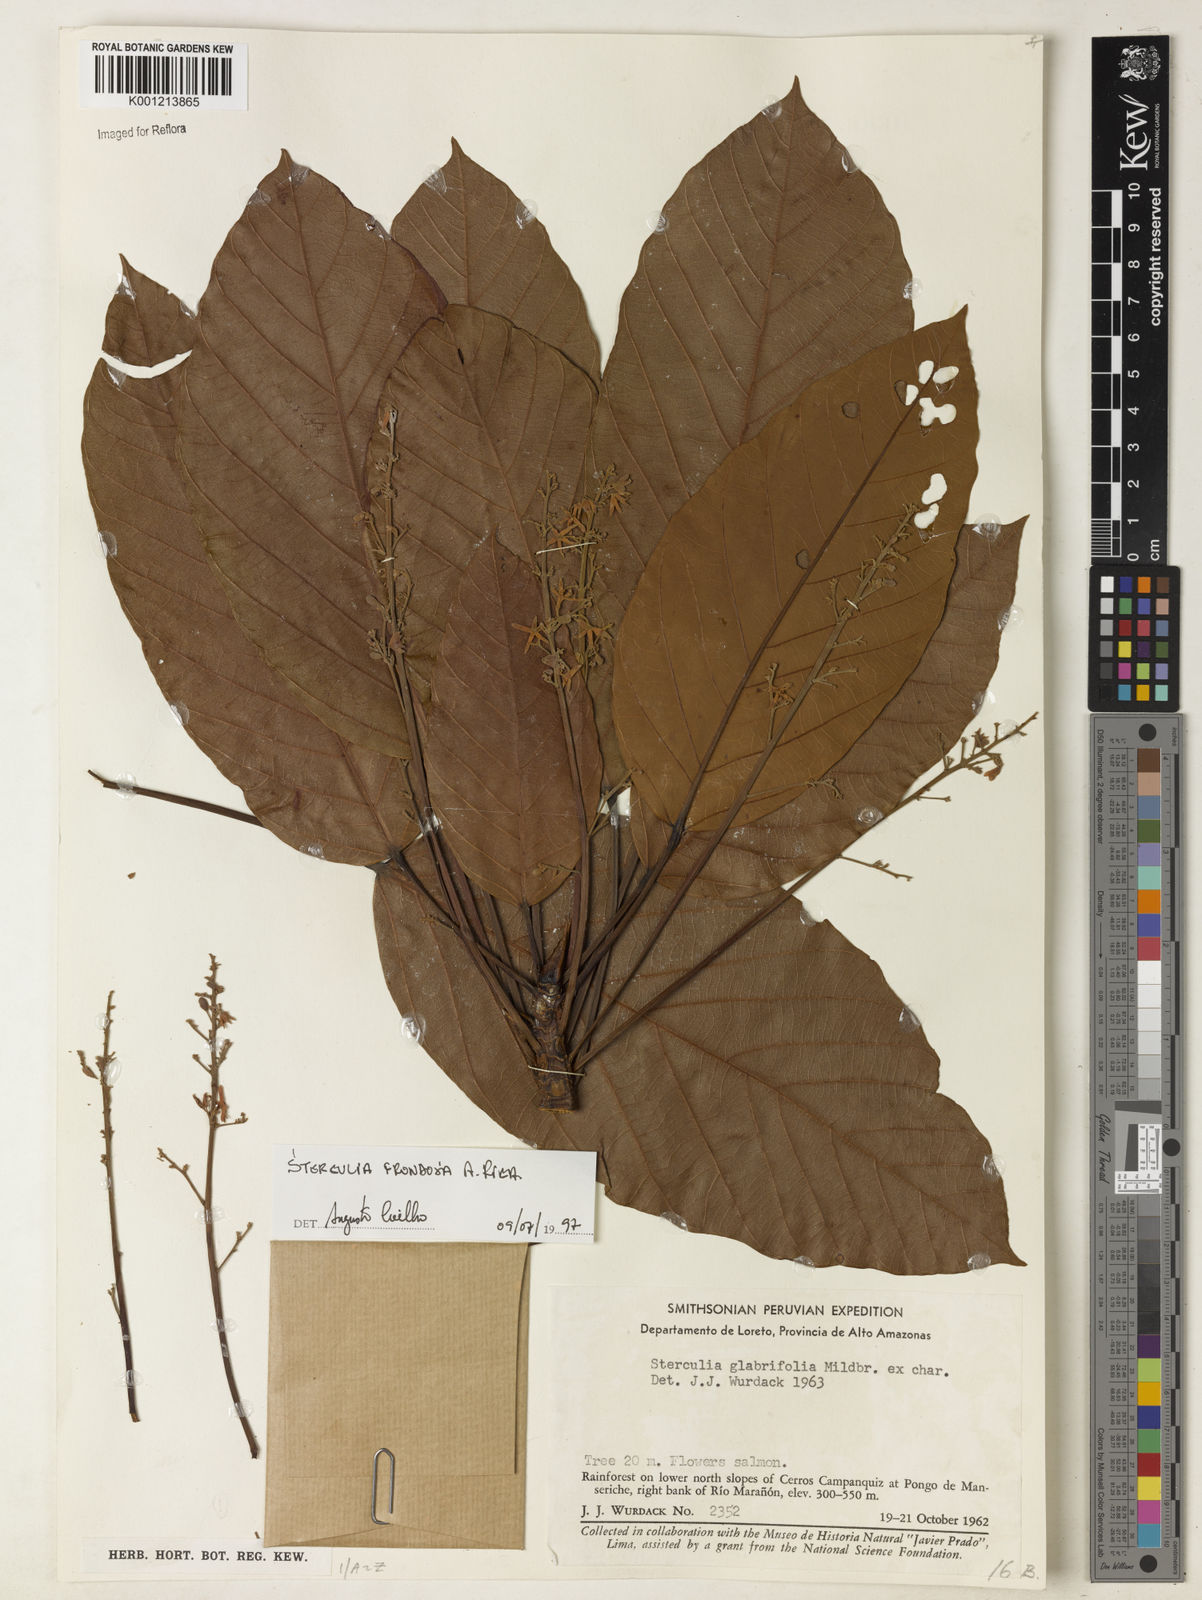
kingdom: Plantae
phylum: Tracheophyta
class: Magnoliopsida
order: Malvales
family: Malvaceae
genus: Sterculia
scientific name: Sterculia frondosa
